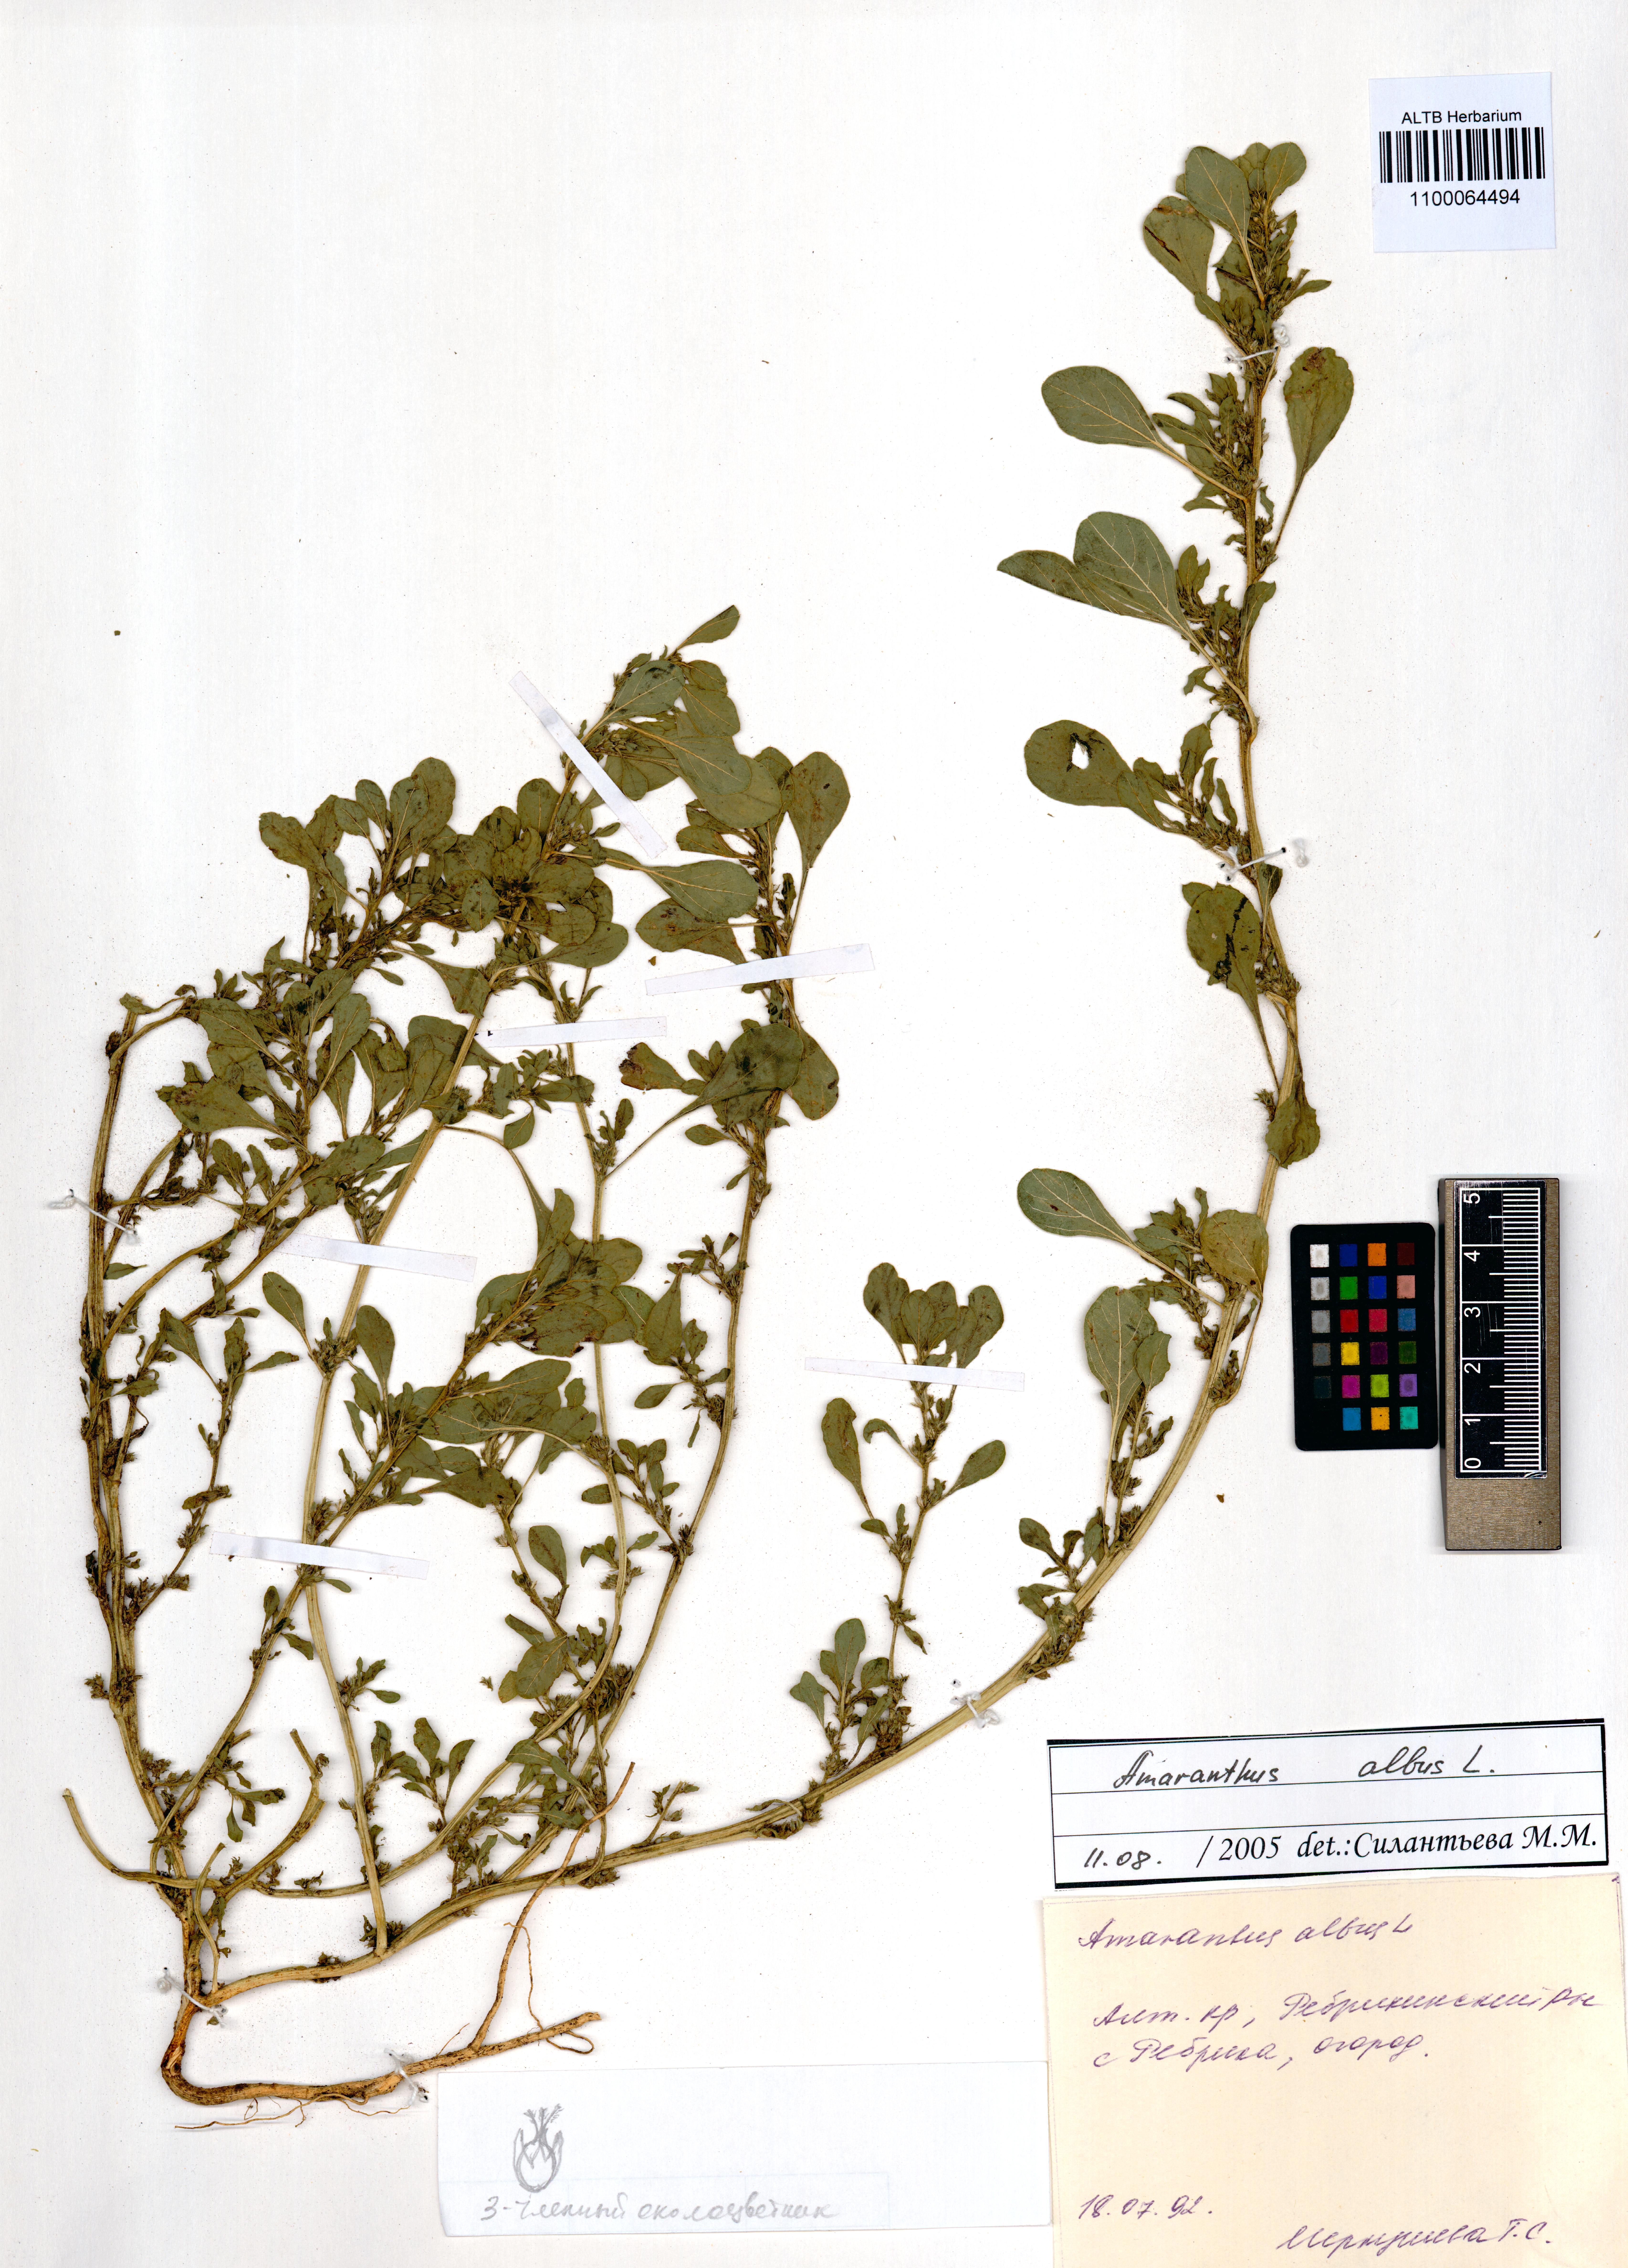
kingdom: Plantae
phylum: Tracheophyta
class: Magnoliopsida
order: Caryophyllales
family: Amaranthaceae
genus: Amaranthus
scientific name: Amaranthus albus
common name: White pigweed
